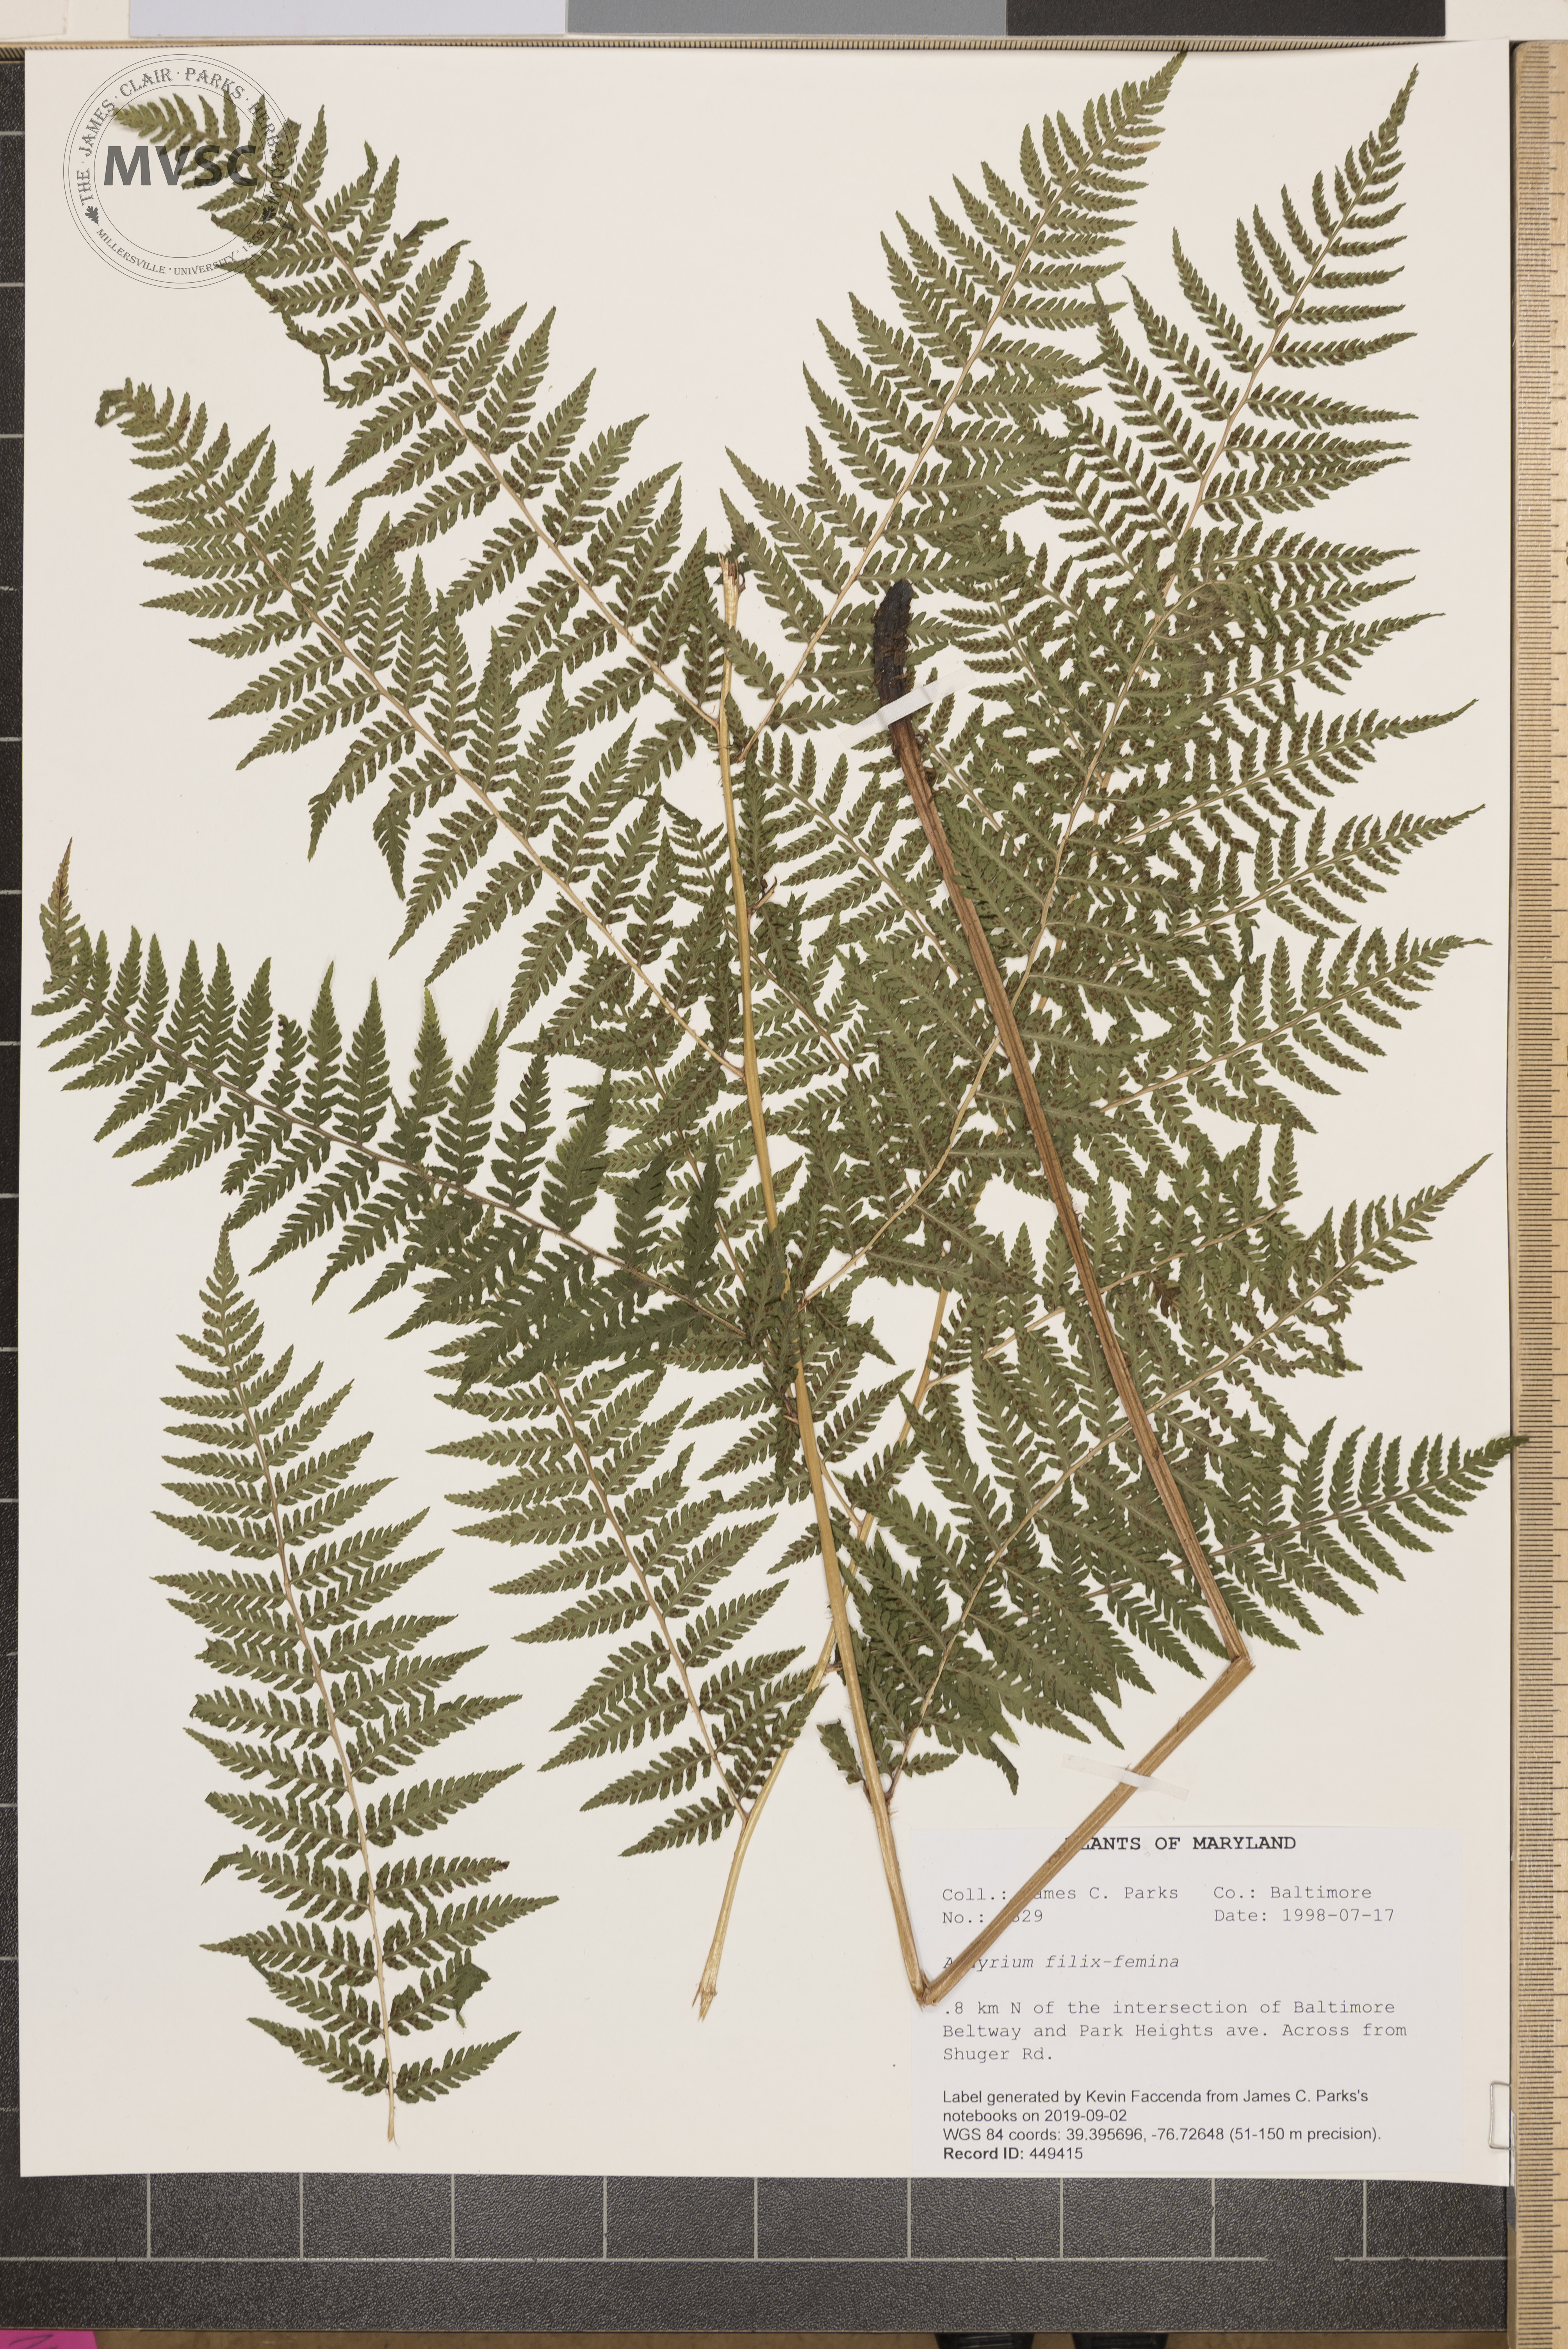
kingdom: Plantae
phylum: Tracheophyta
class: Polypodiopsida
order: Polypodiales
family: Athyriaceae
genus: Athyrium
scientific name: Athyrium filix-femina
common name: Lady fern
